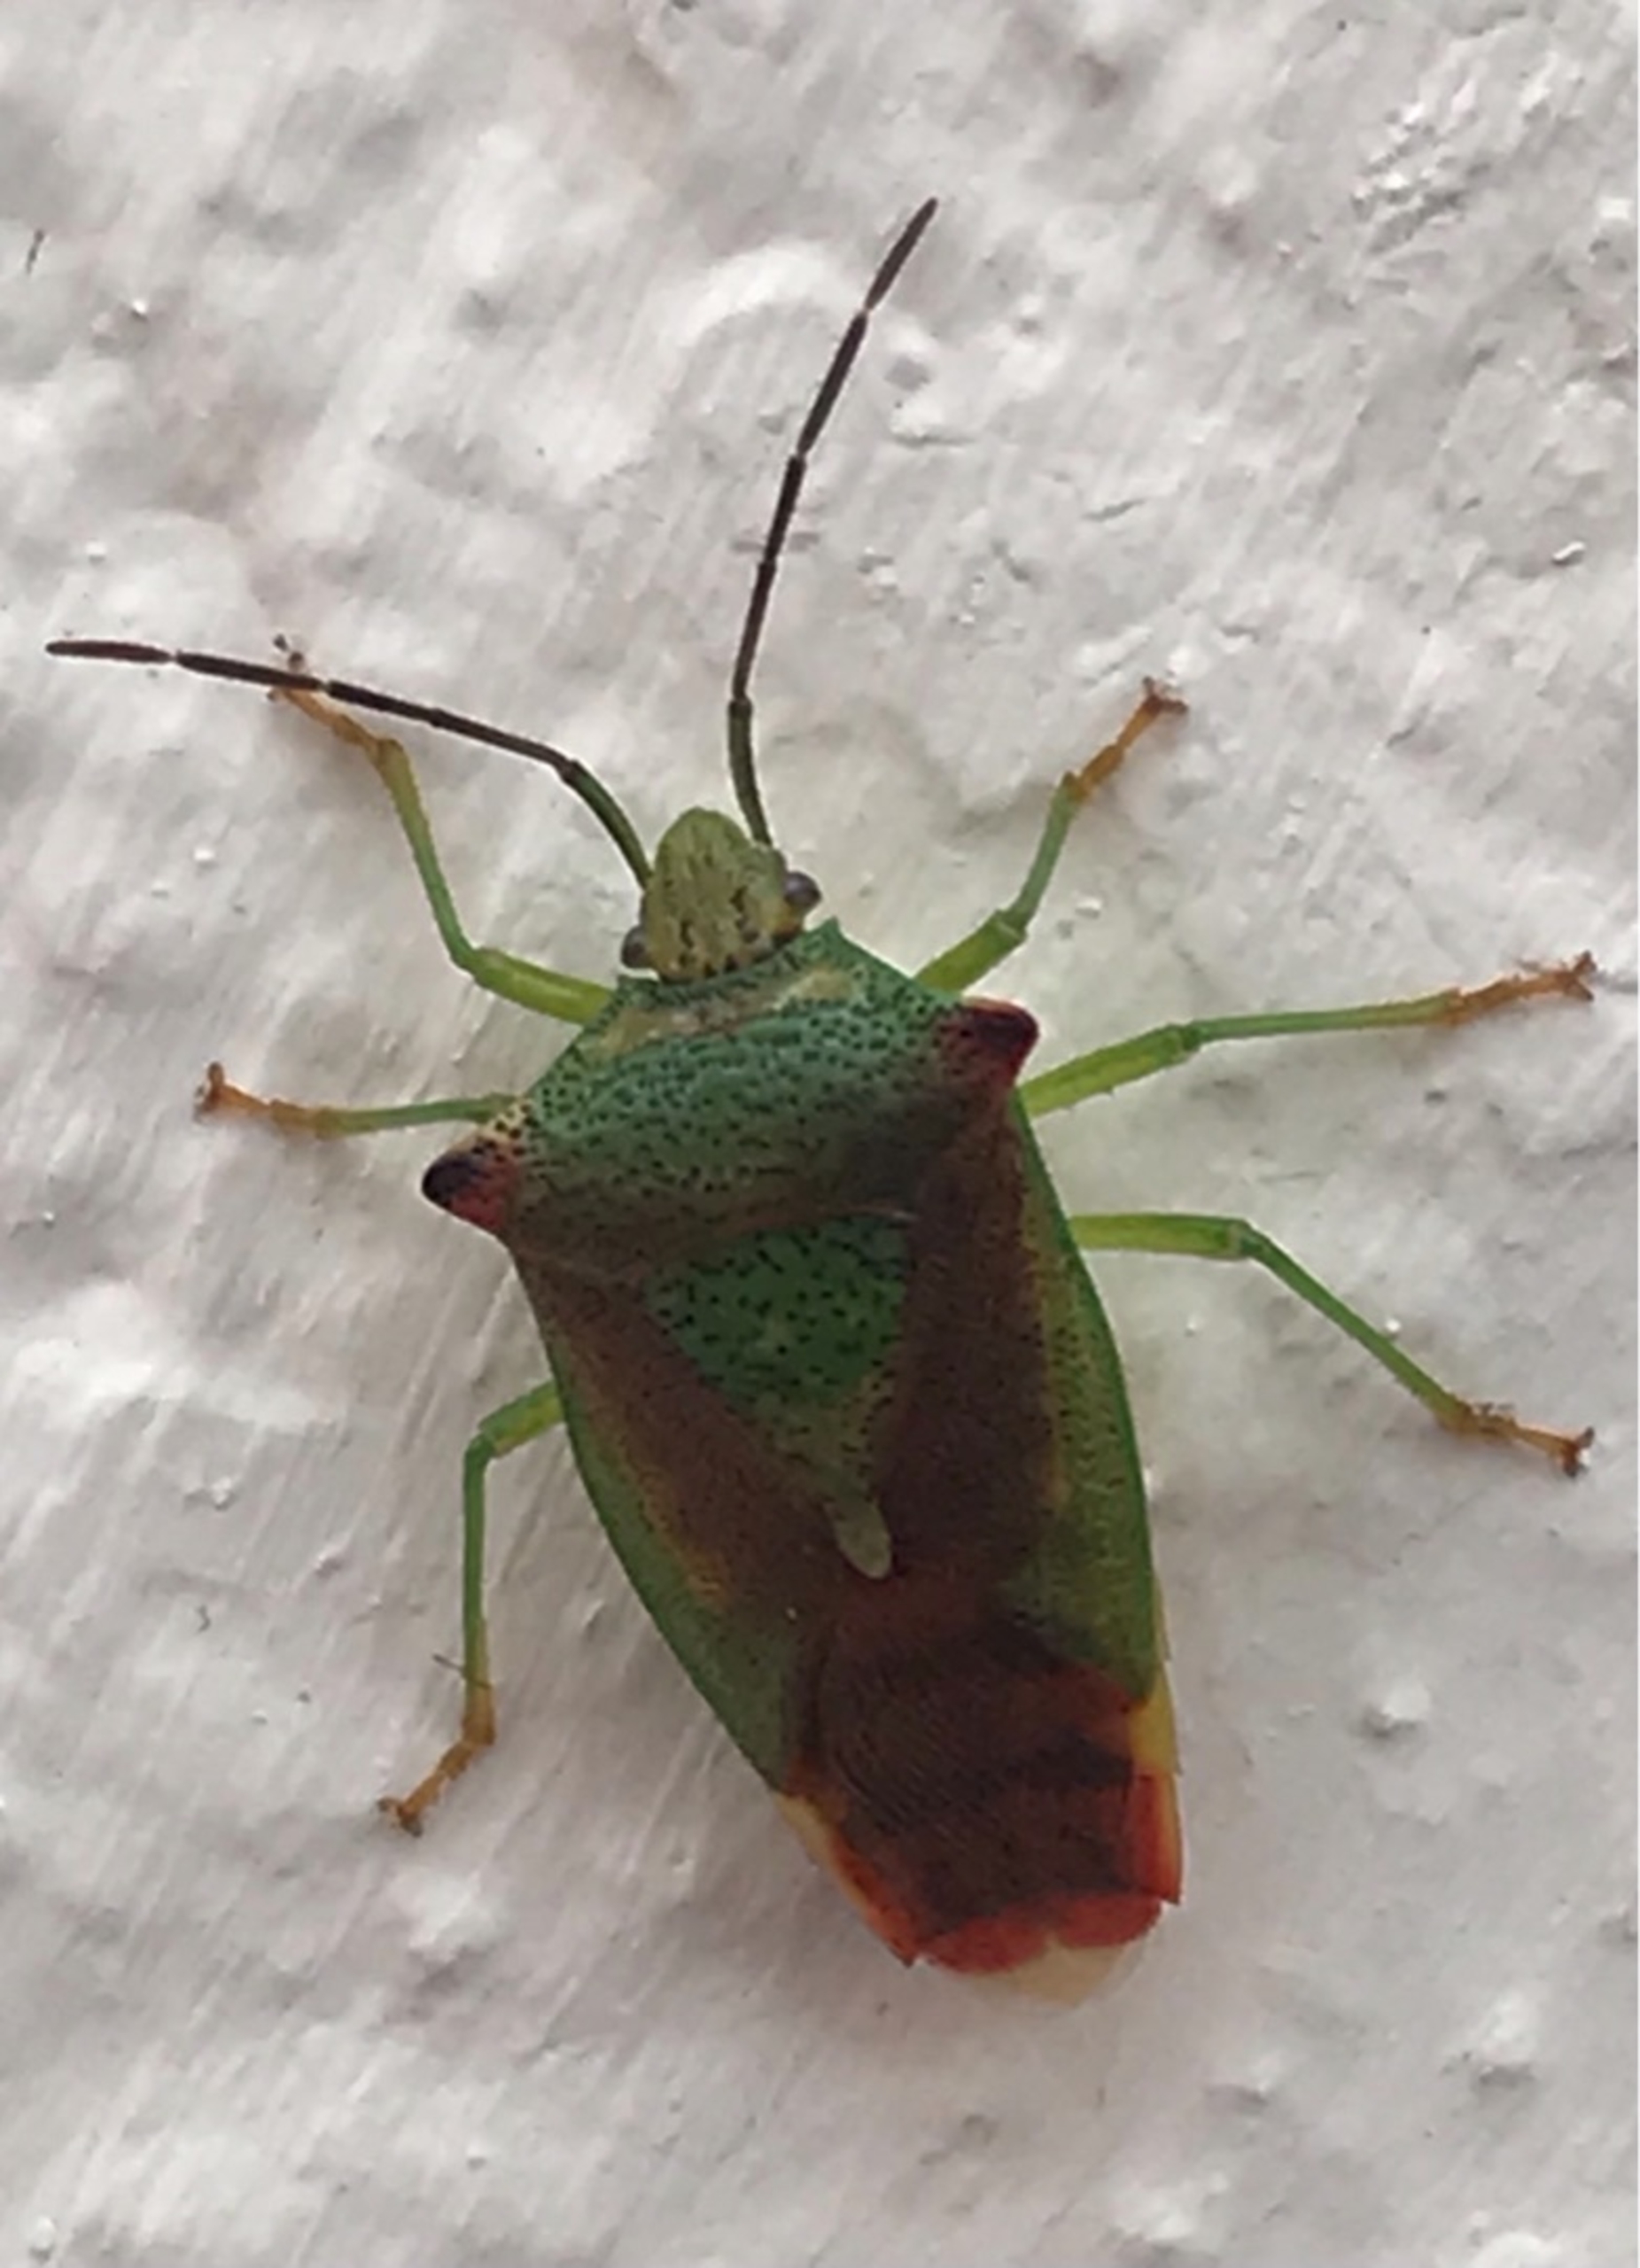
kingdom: Animalia
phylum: Arthropoda
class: Insecta
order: Hemiptera
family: Acanthosomatidae
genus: Acanthosoma
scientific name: Acanthosoma haemorrhoidale
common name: Stor løvtæge
